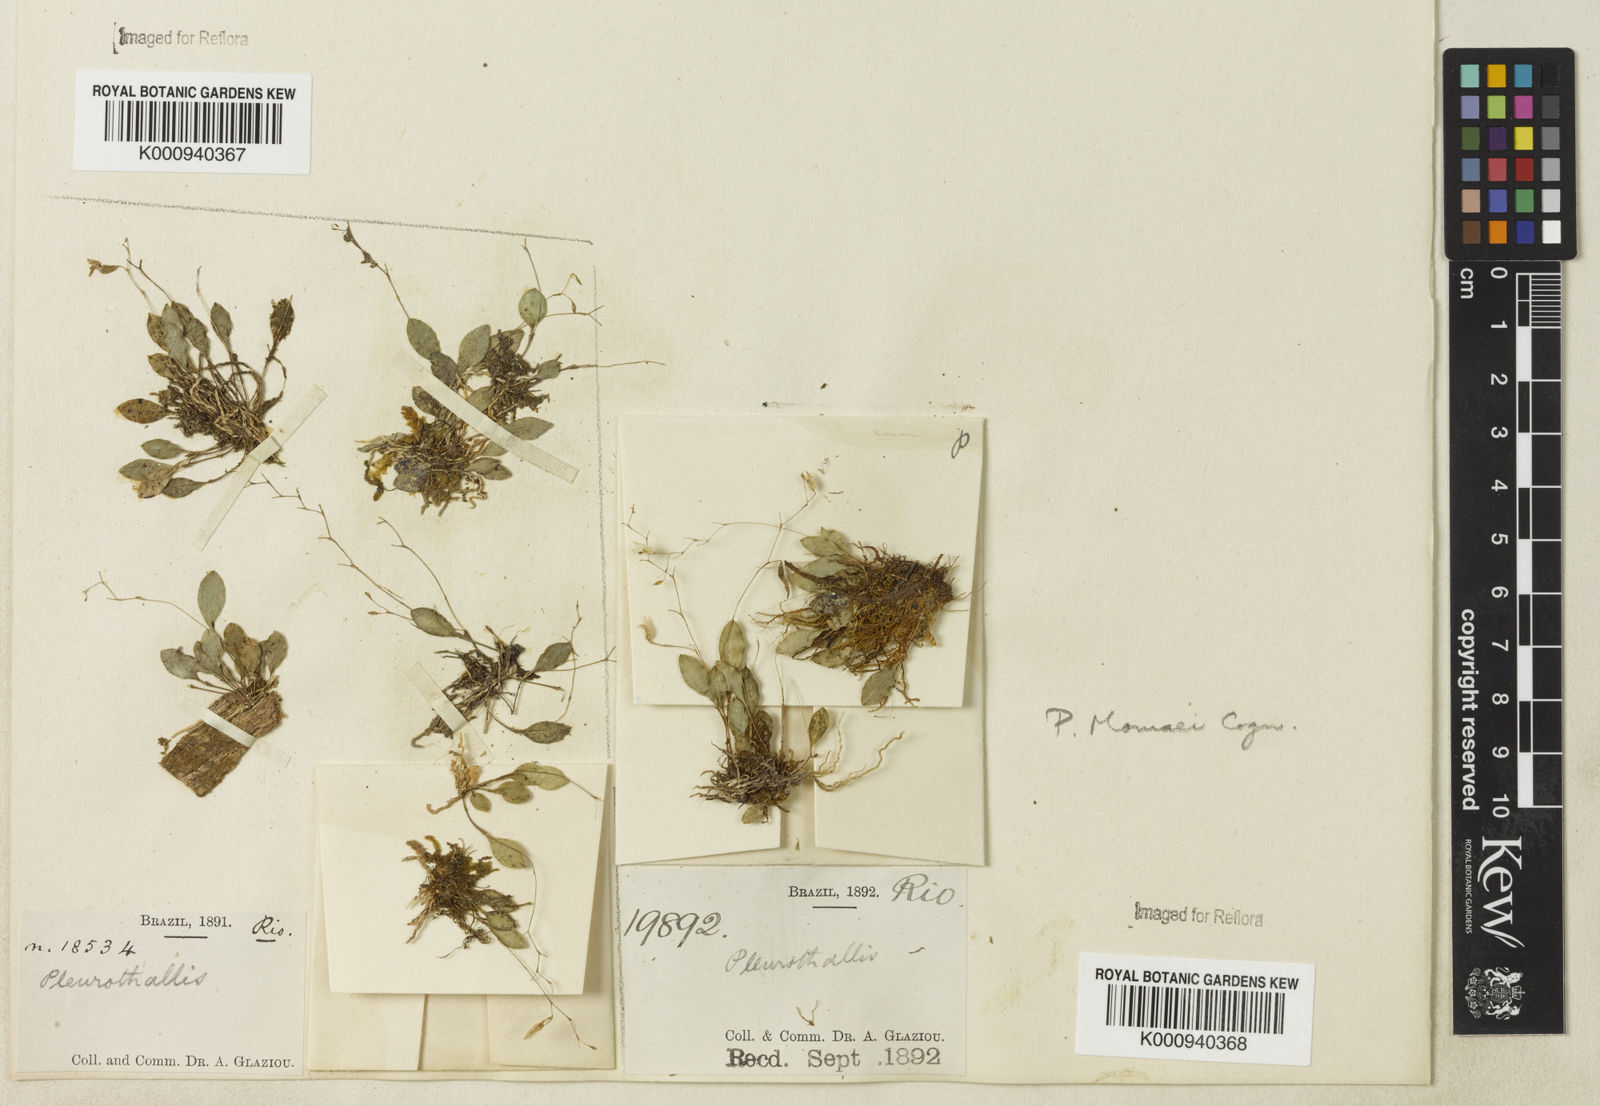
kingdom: Plantae
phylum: Tracheophyta
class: Liliopsida
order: Asparagales
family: Orchidaceae
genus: Pabstiella
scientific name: Pabstiella quadridentata
